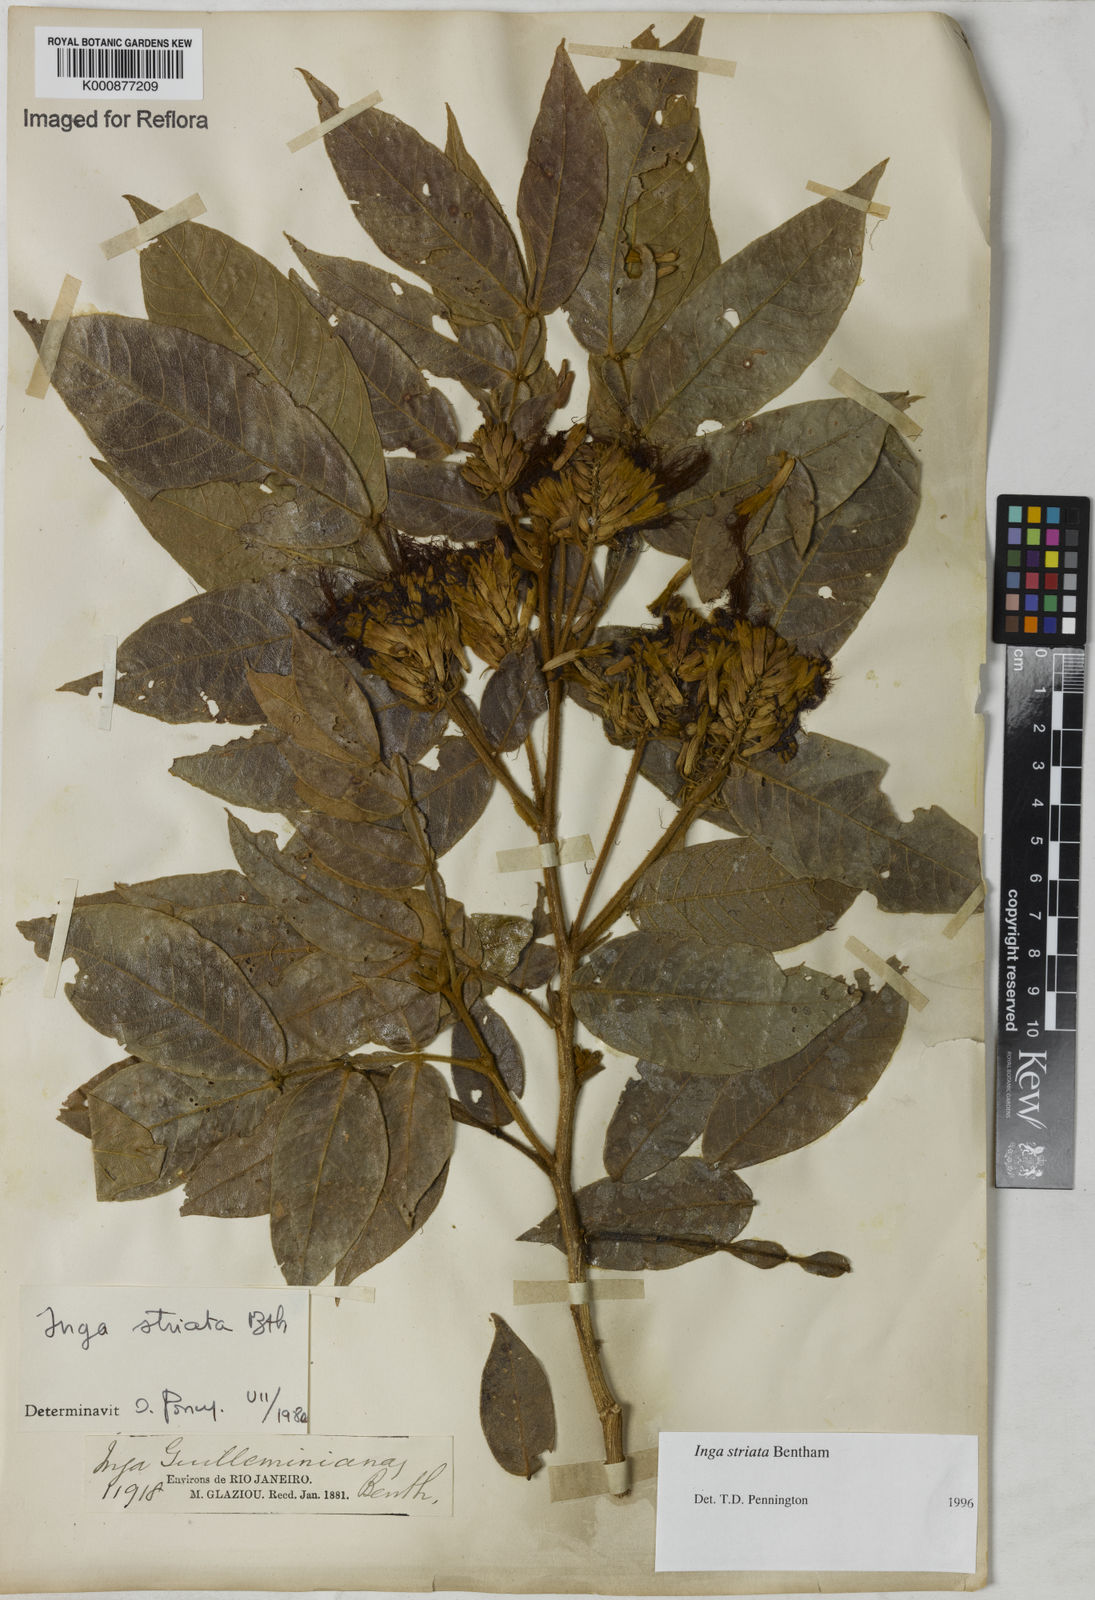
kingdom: Plantae
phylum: Tracheophyta
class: Magnoliopsida
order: Fabales
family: Fabaceae
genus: Inga
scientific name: Inga striata
